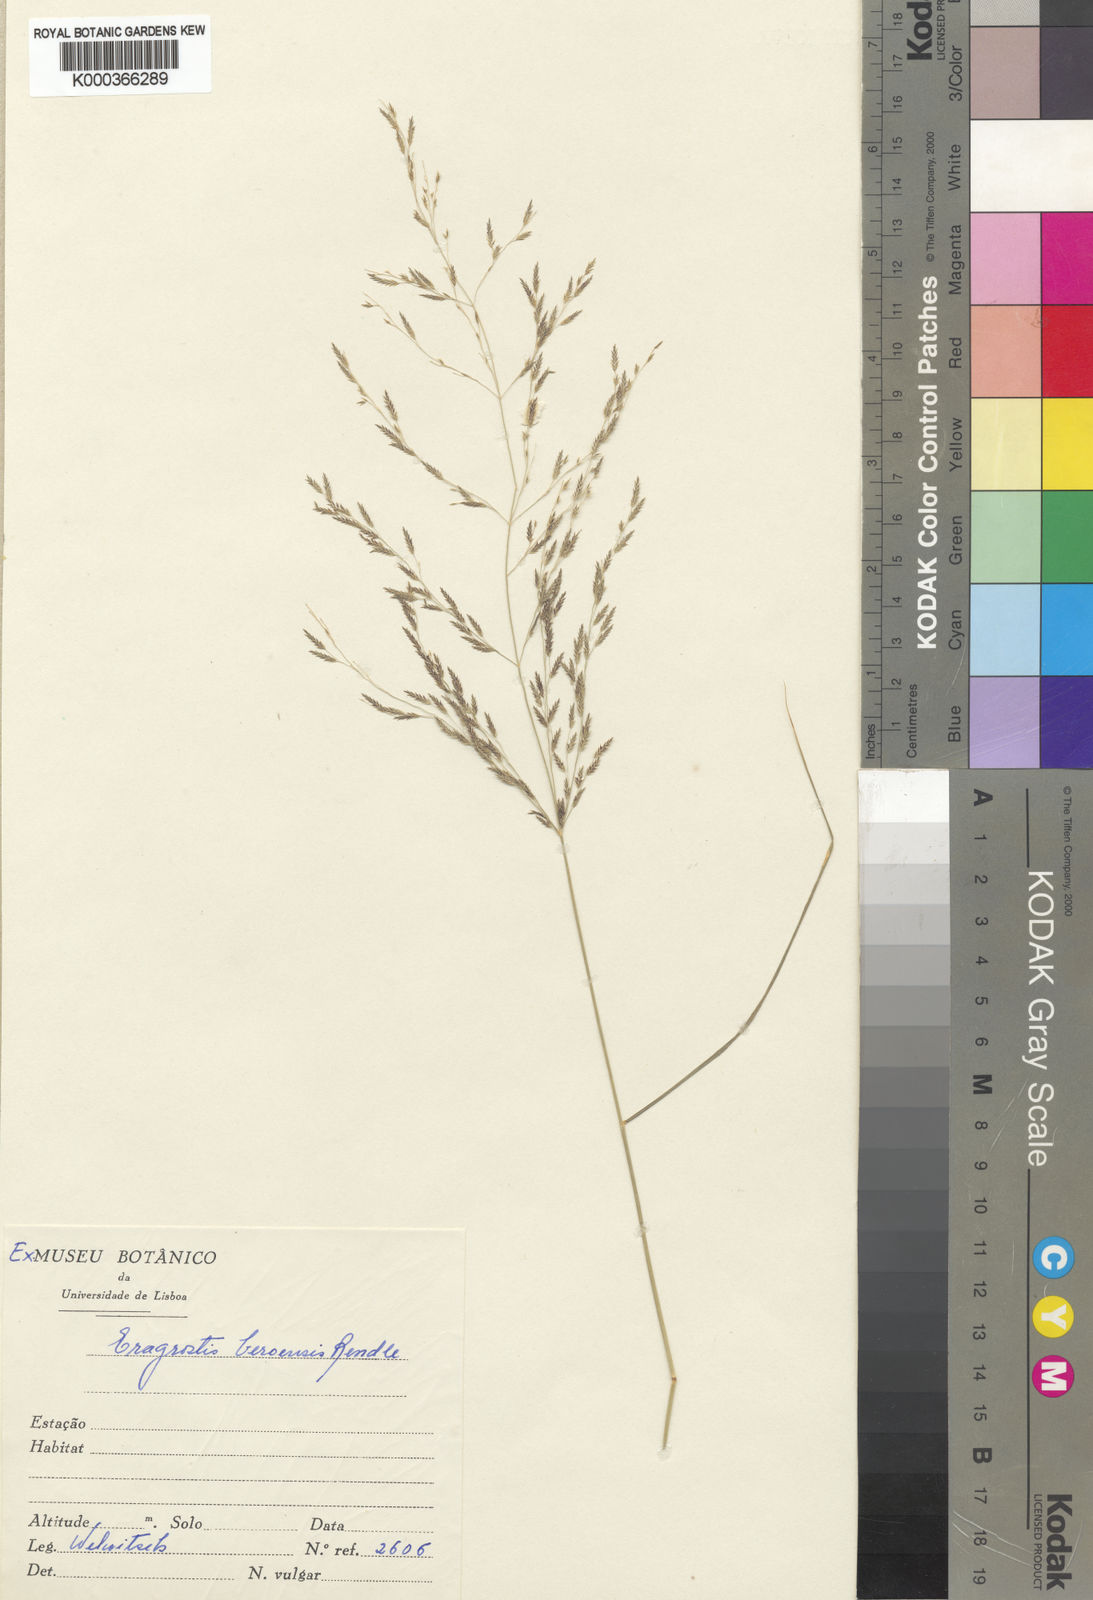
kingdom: Plantae
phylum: Tracheophyta
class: Liliopsida
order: Poales
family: Poaceae
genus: Eragrostis
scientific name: Eragrostis rotifer
